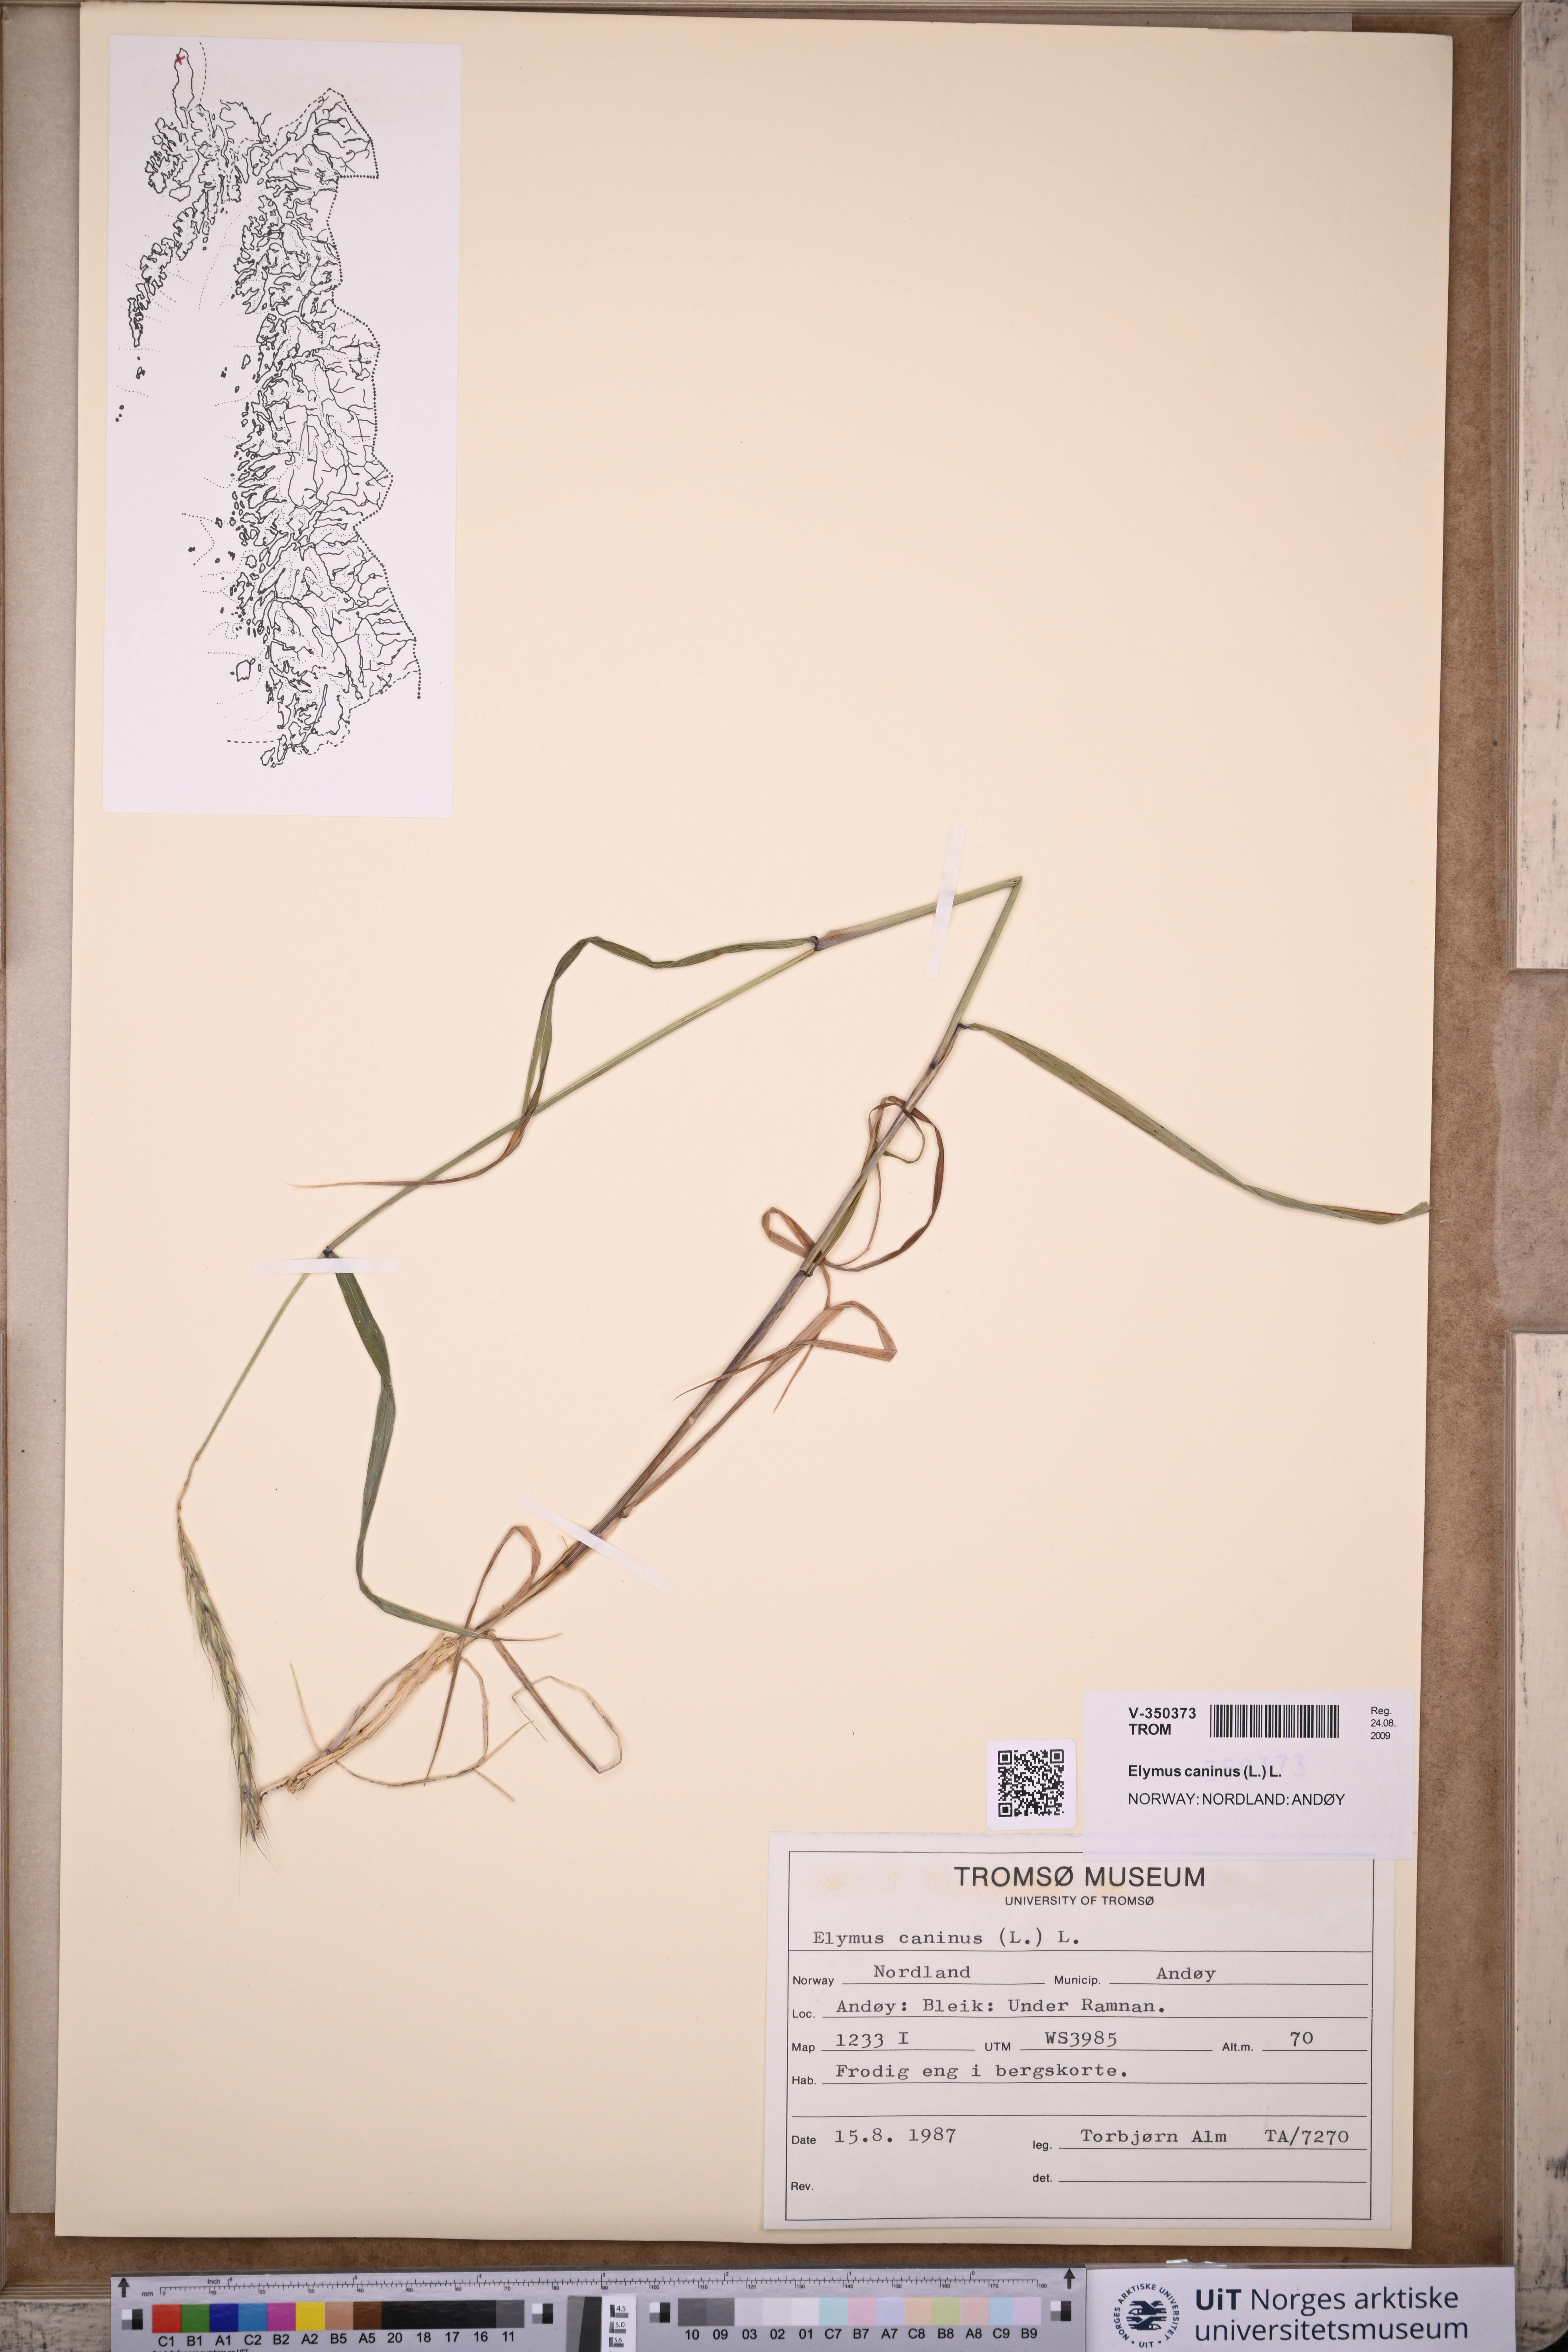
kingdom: Plantae
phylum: Tracheophyta
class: Liliopsida
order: Poales
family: Poaceae
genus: Elymus
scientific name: Elymus caninus
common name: Bearded couch
